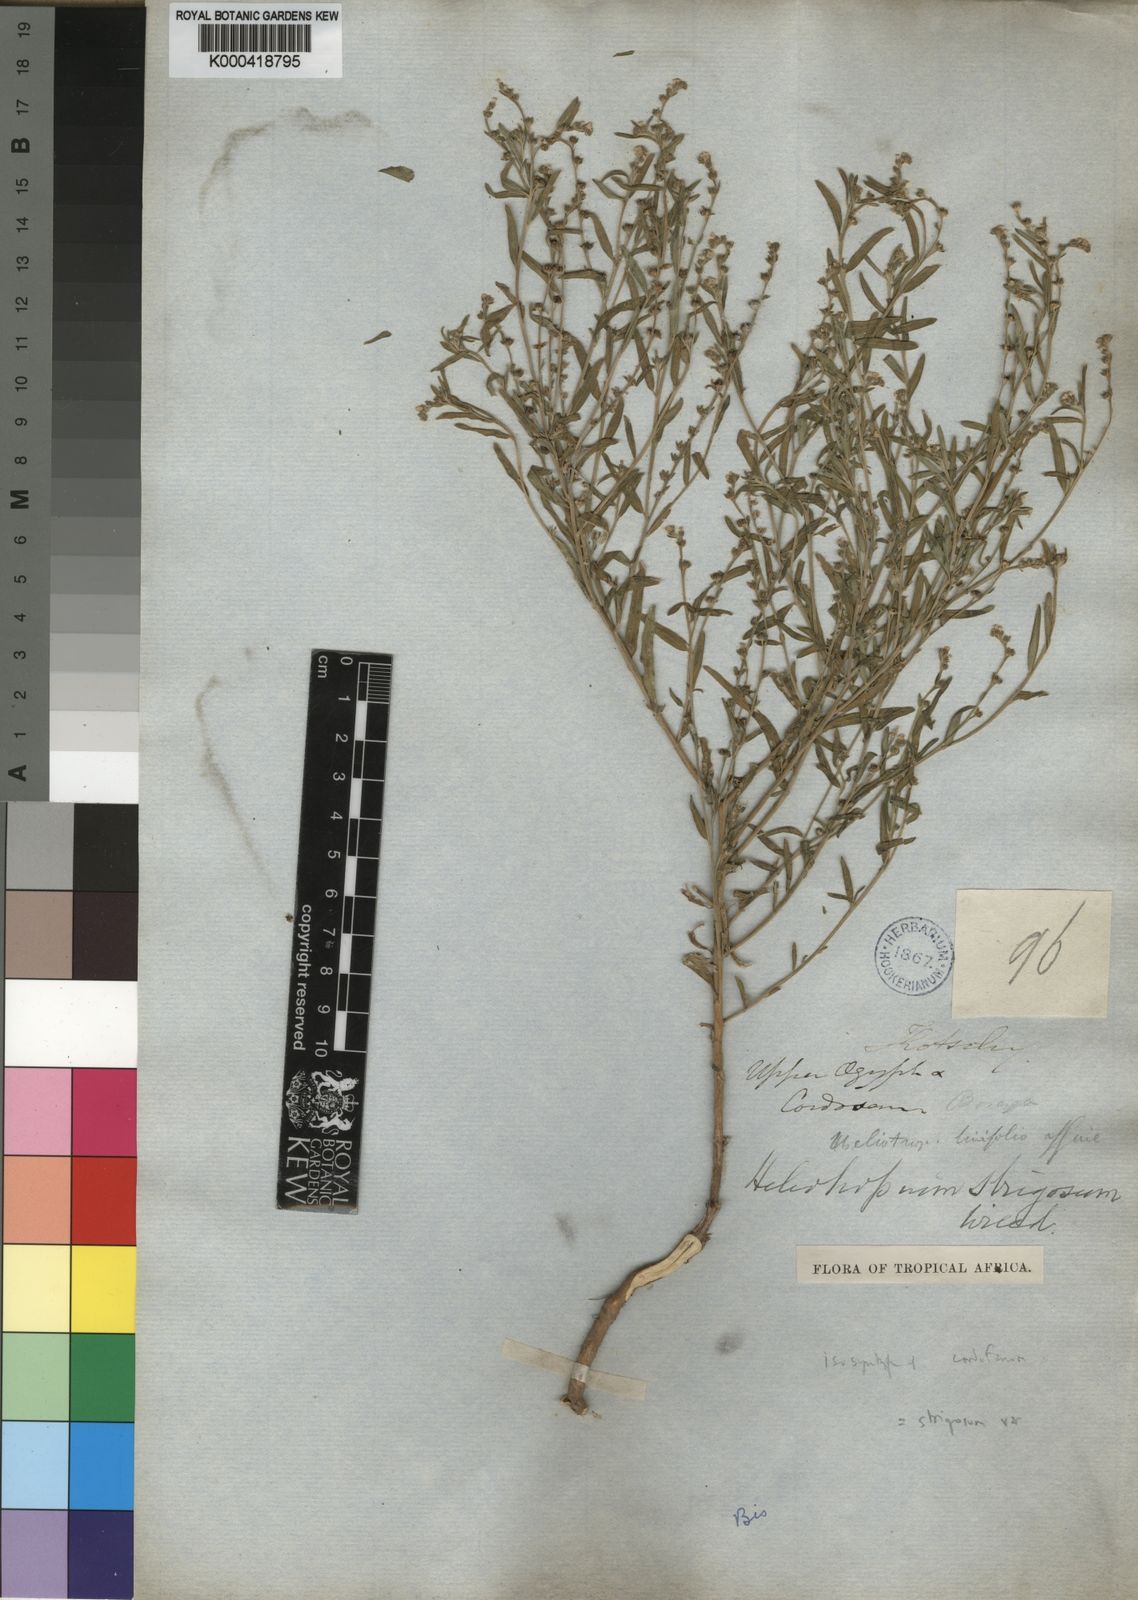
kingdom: Plantae
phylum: Tracheophyta
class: Magnoliopsida
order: Boraginales
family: Heliotropiaceae
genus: Euploca
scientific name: Euploca strigosa
